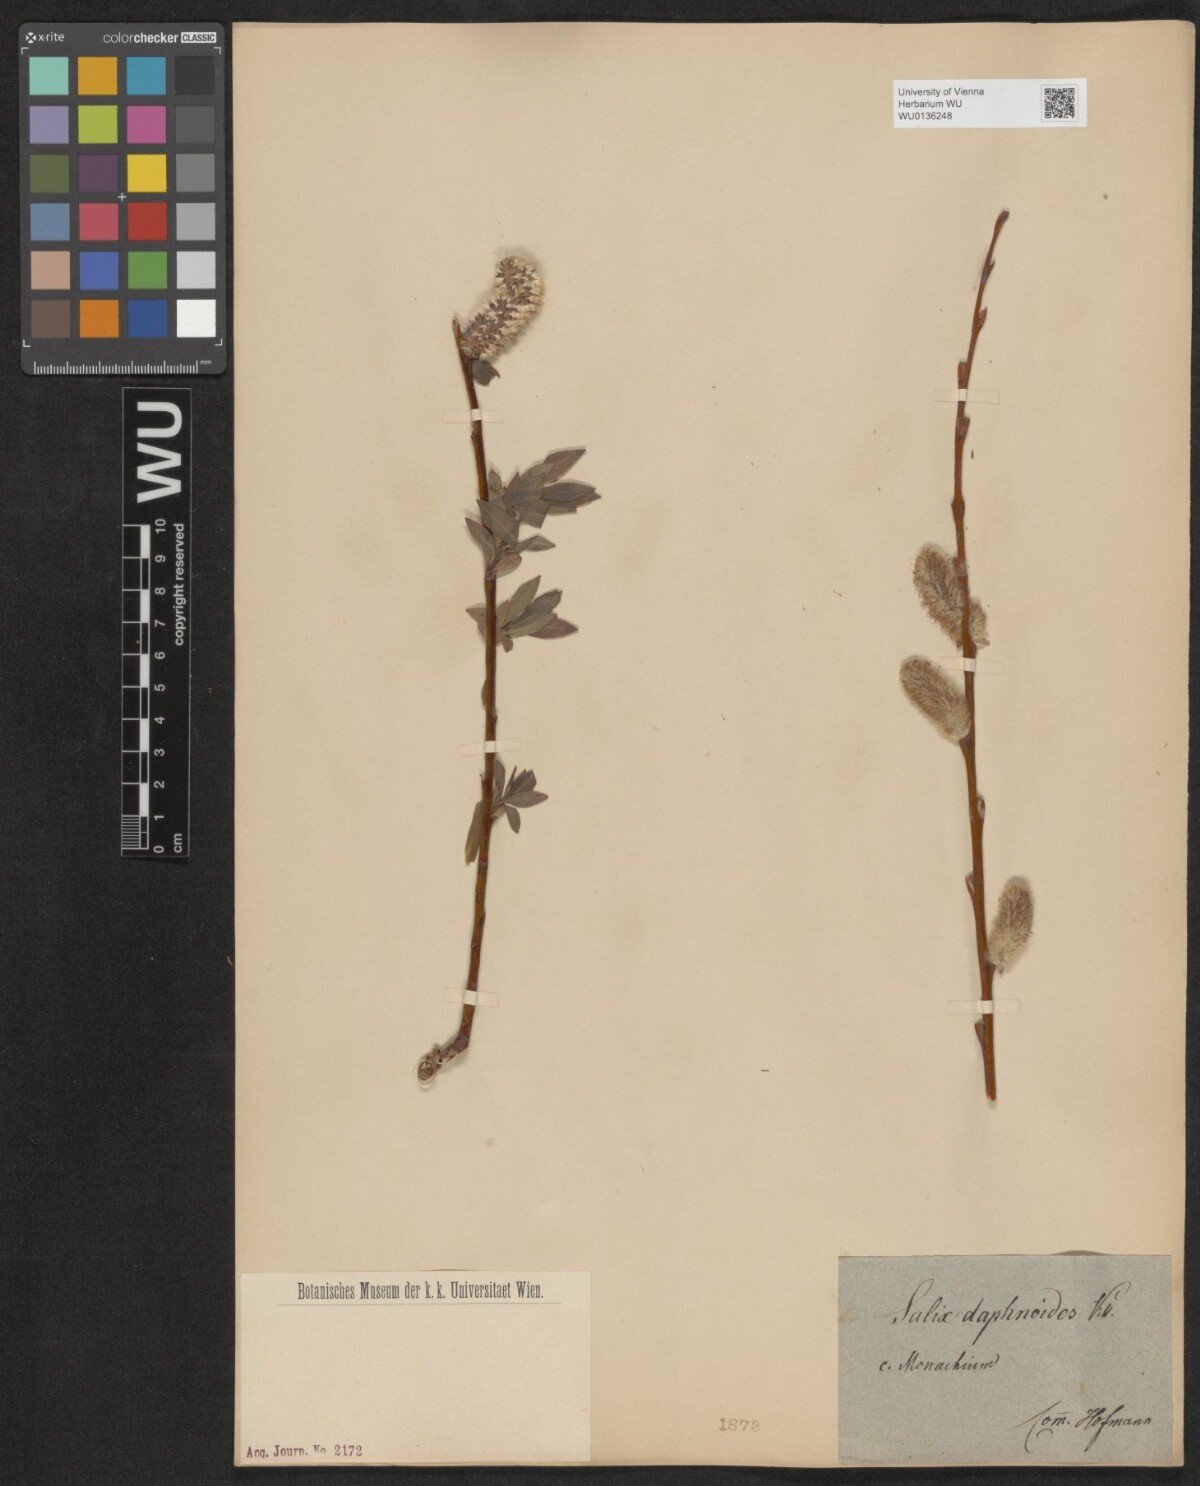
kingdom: Plantae
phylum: Tracheophyta
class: Magnoliopsida
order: Malpighiales
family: Salicaceae
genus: Salix
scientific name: Salix daphnoides
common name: European violet-willow
